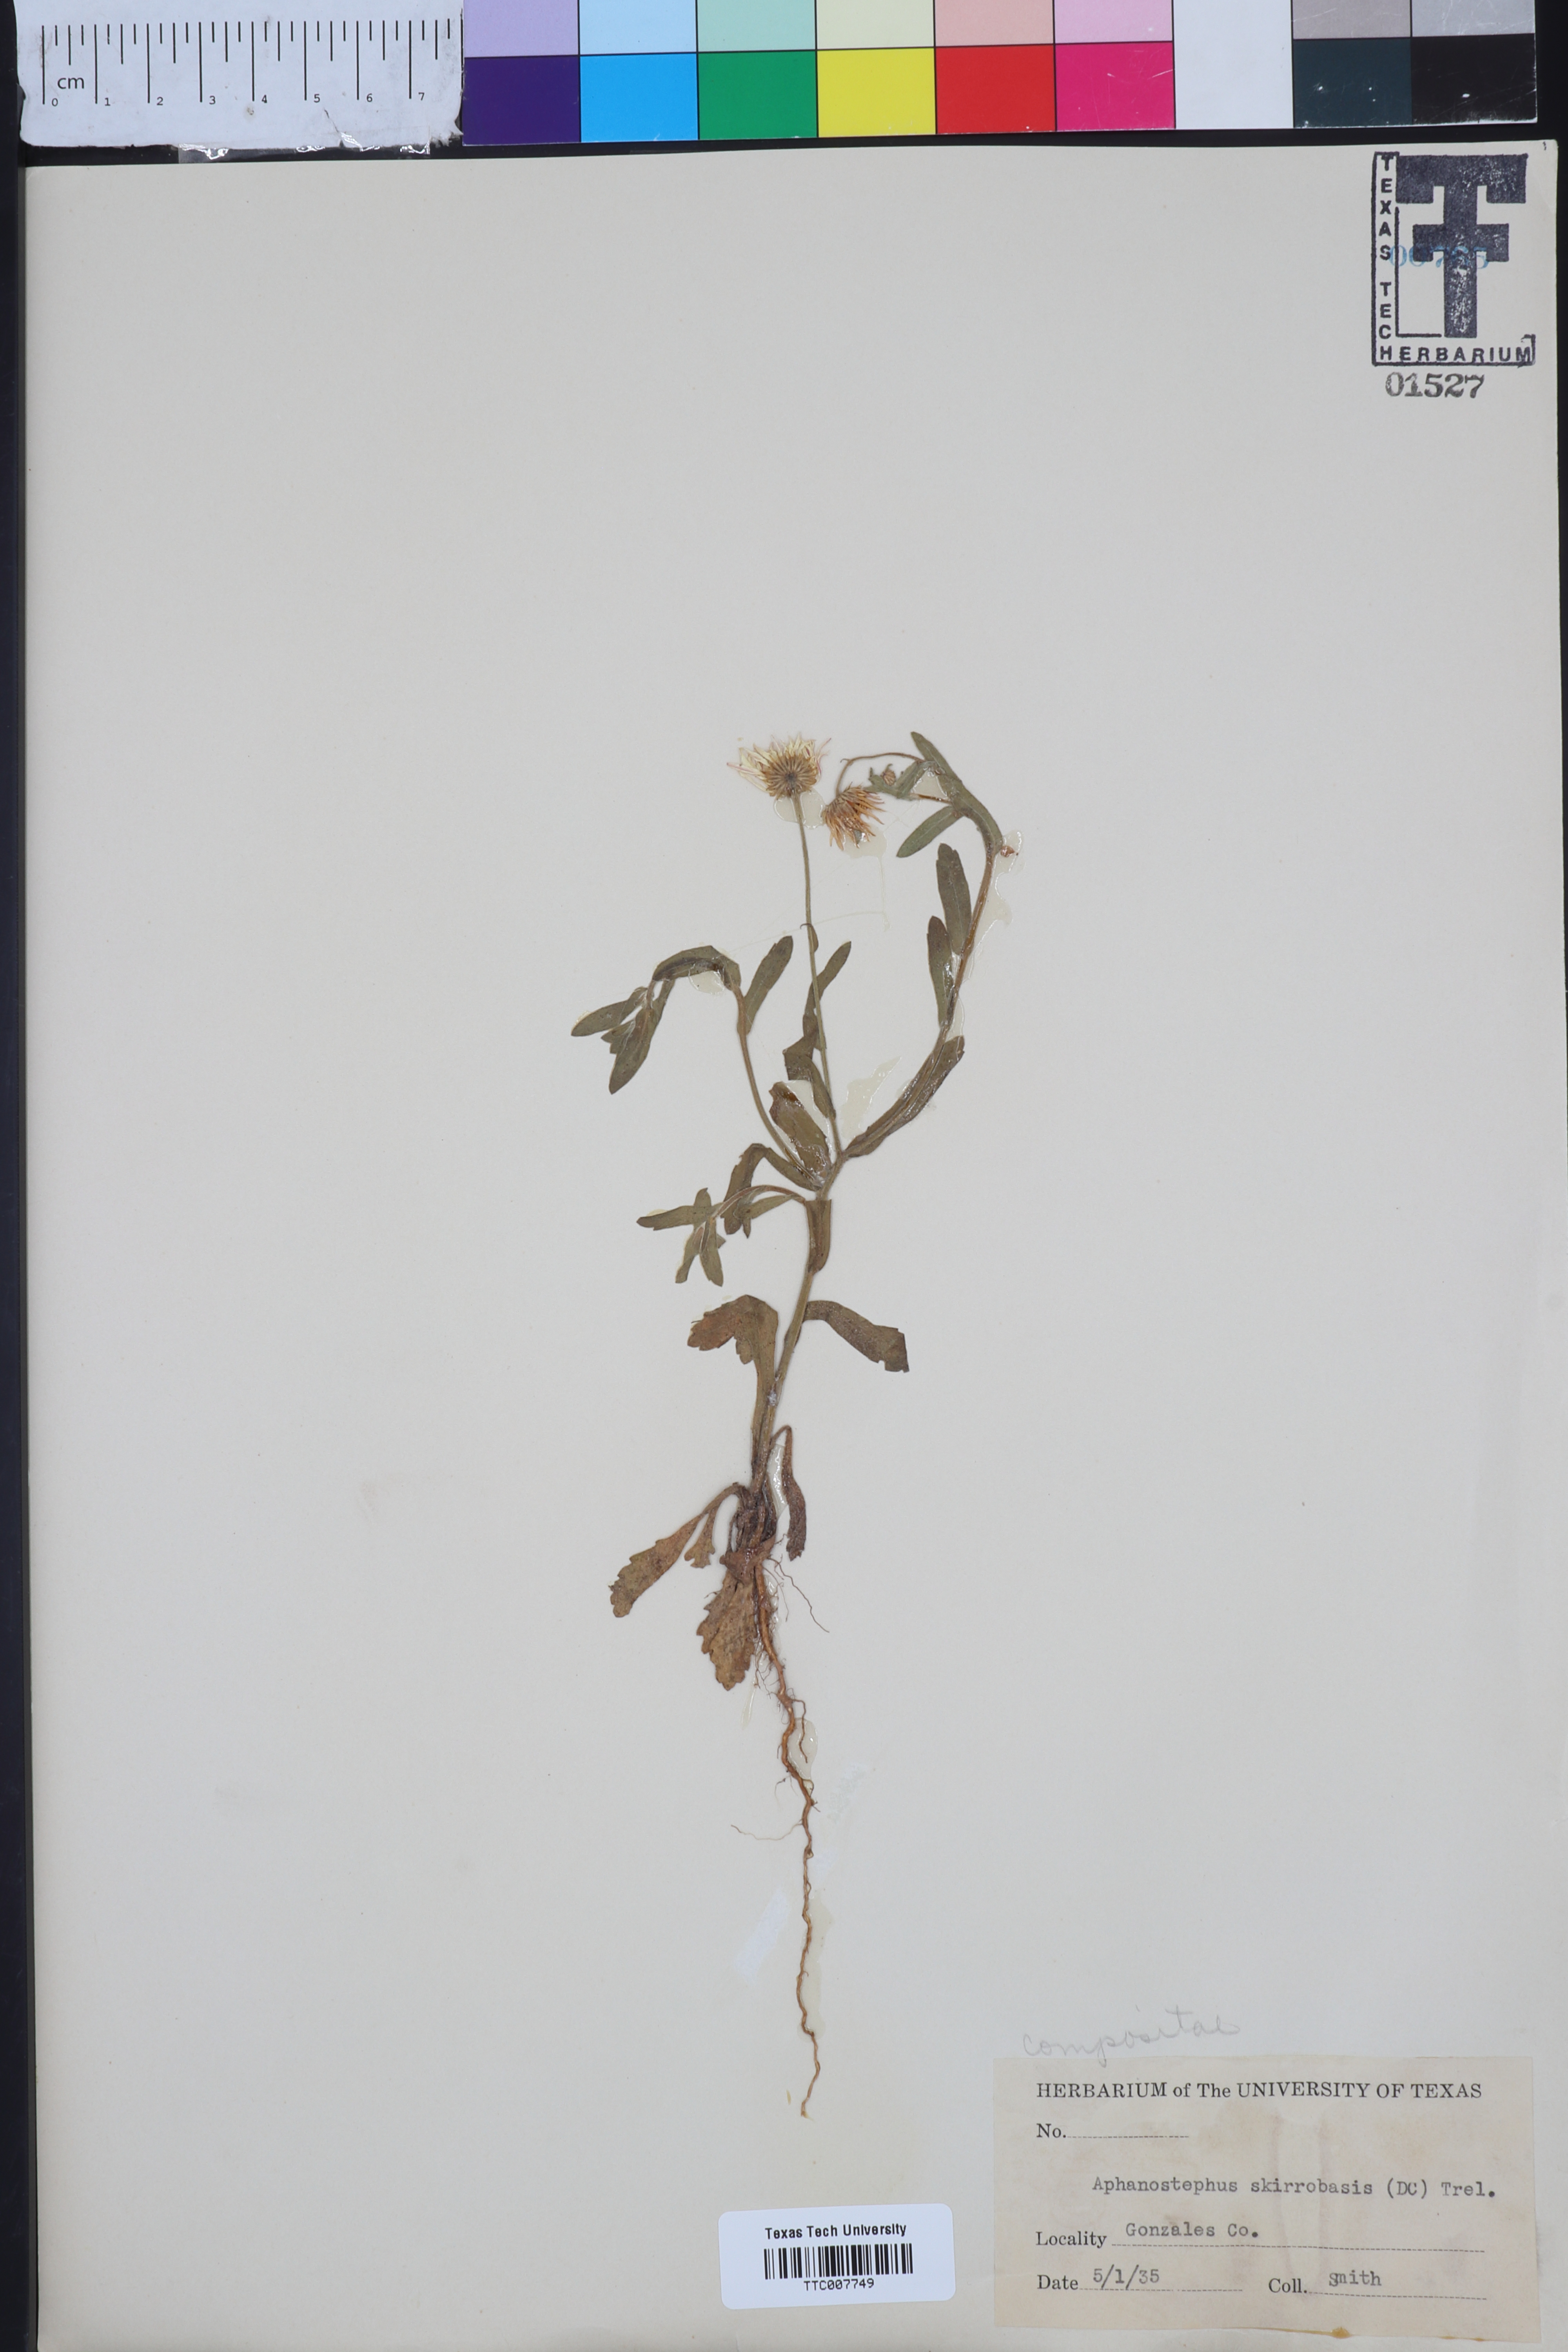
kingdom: Plantae
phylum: Tracheophyta
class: Magnoliopsida
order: Asterales
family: Asteraceae
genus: Aphanostephus
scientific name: Aphanostephus skirrhobasis
